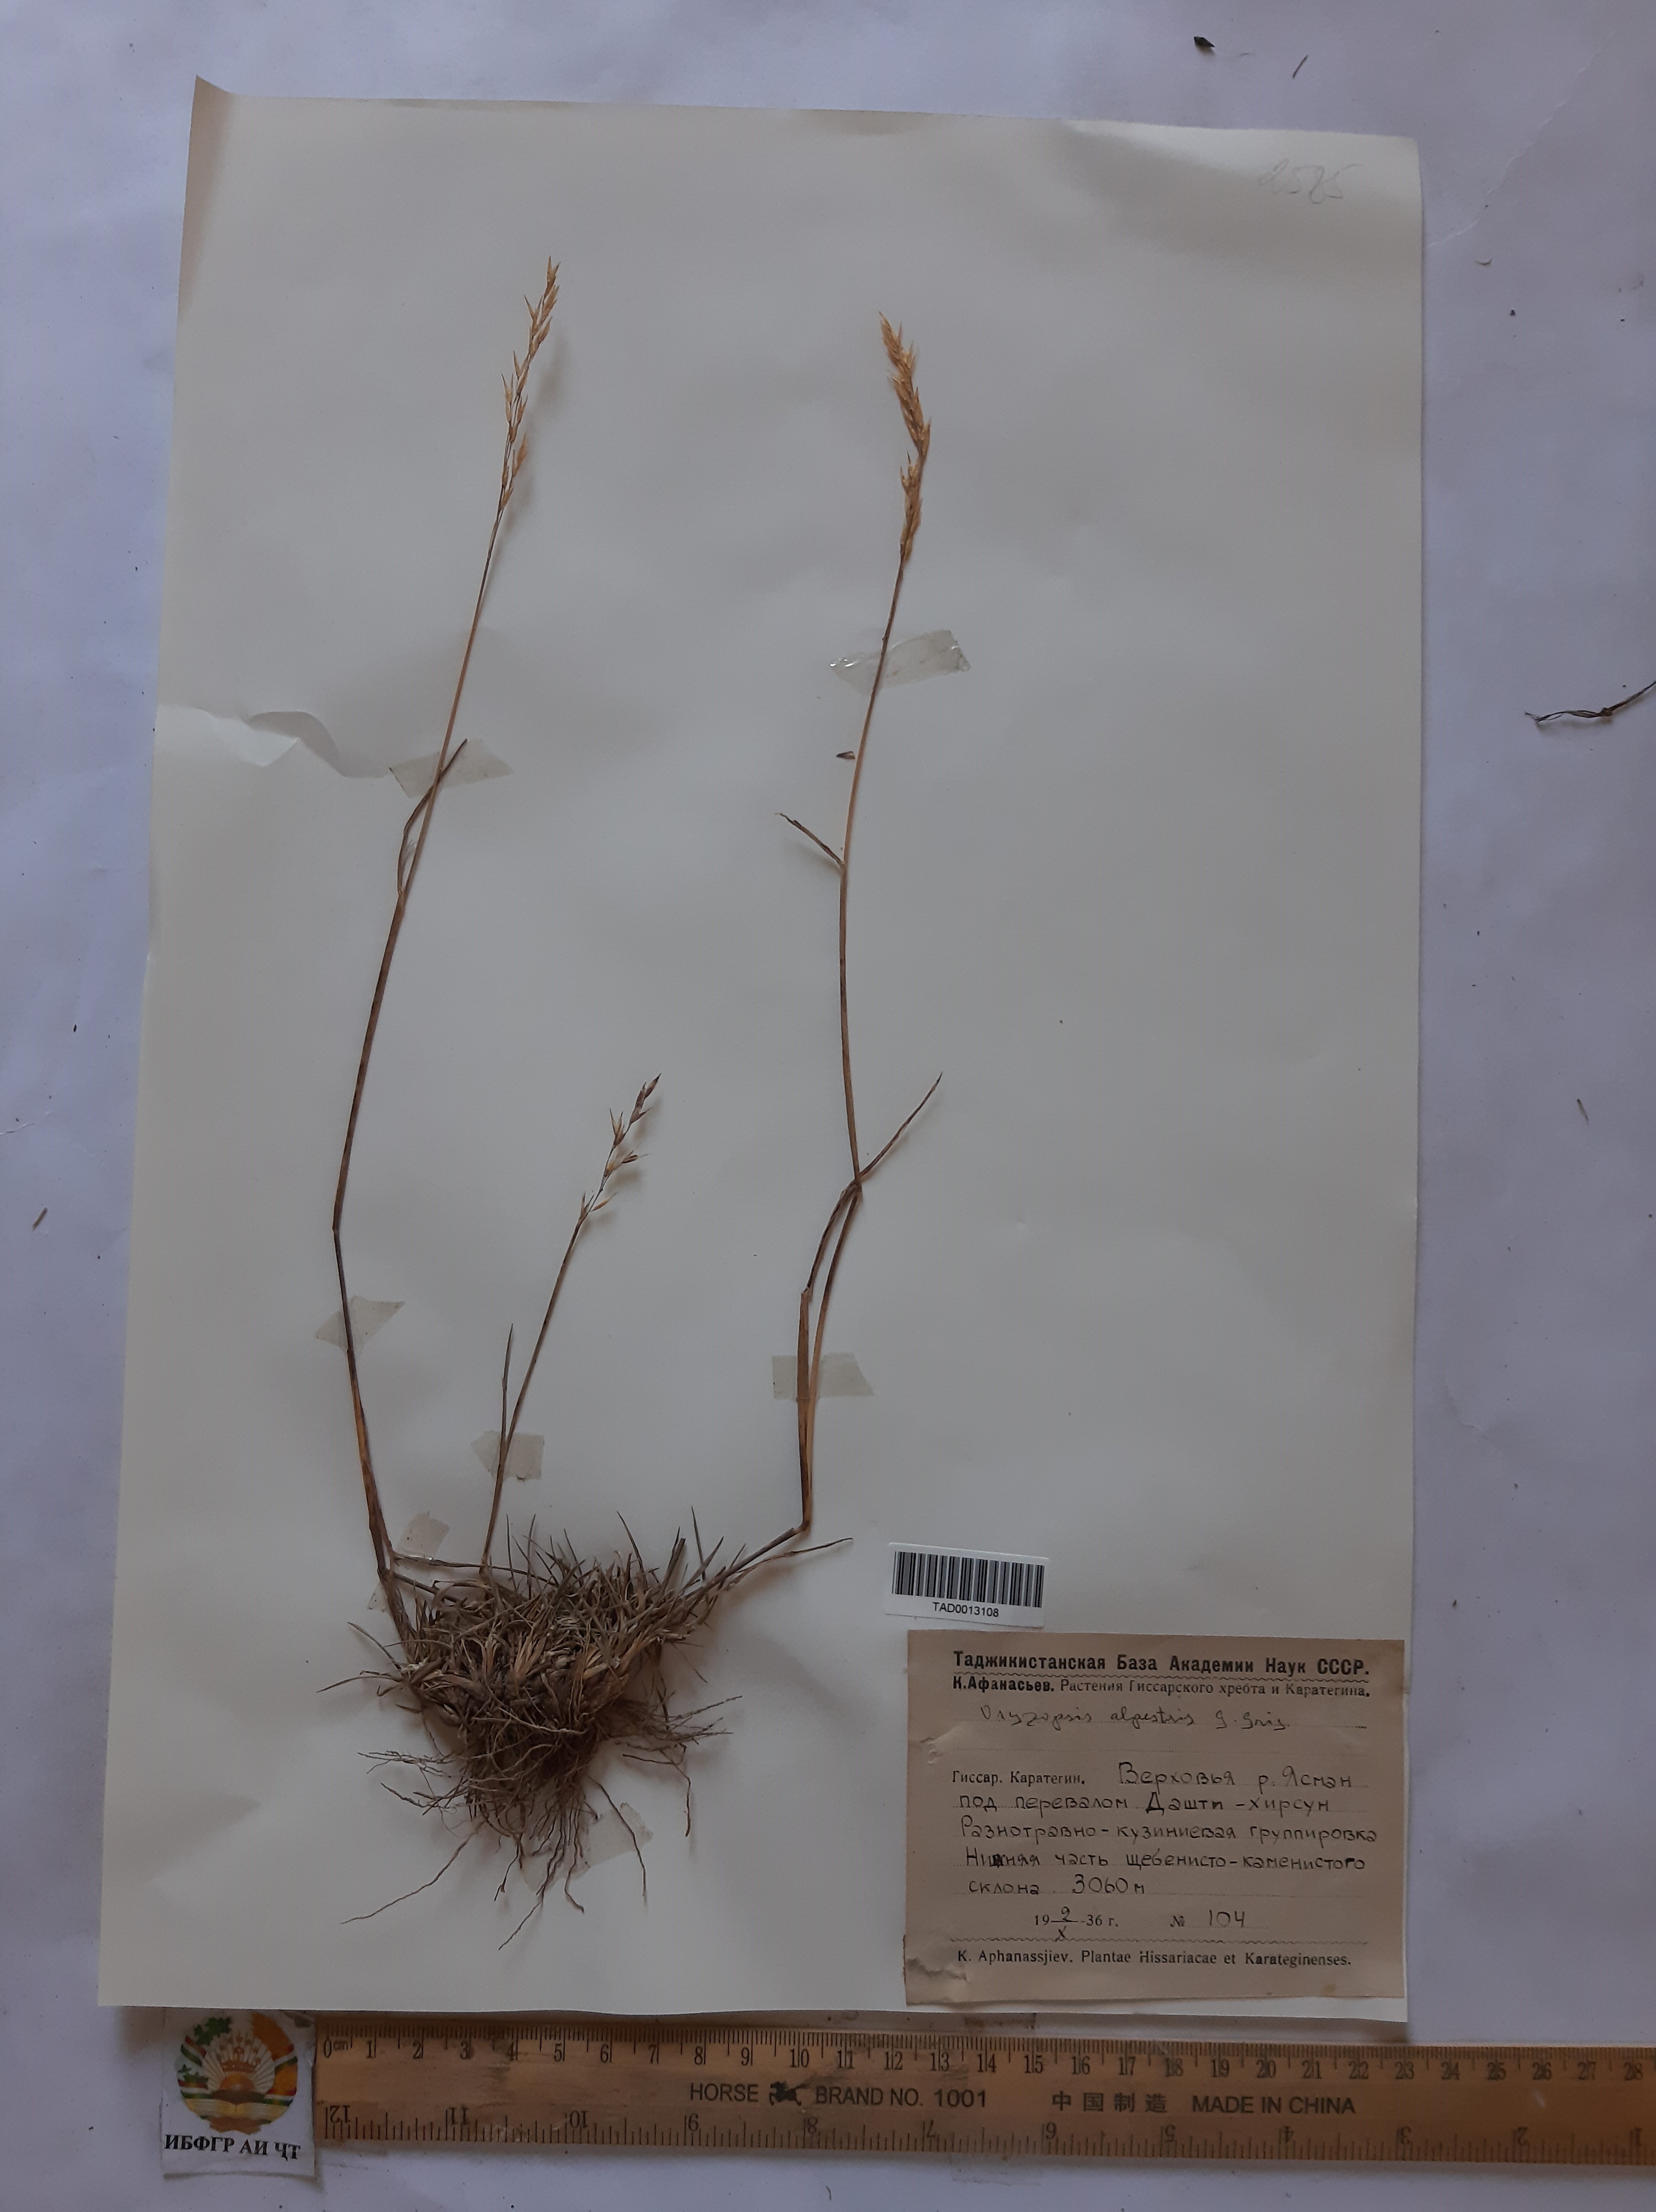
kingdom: Plantae
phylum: Tracheophyta
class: Liliopsida
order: Poales
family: Poaceae
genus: Piptatherum
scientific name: Piptatherum alpestre
